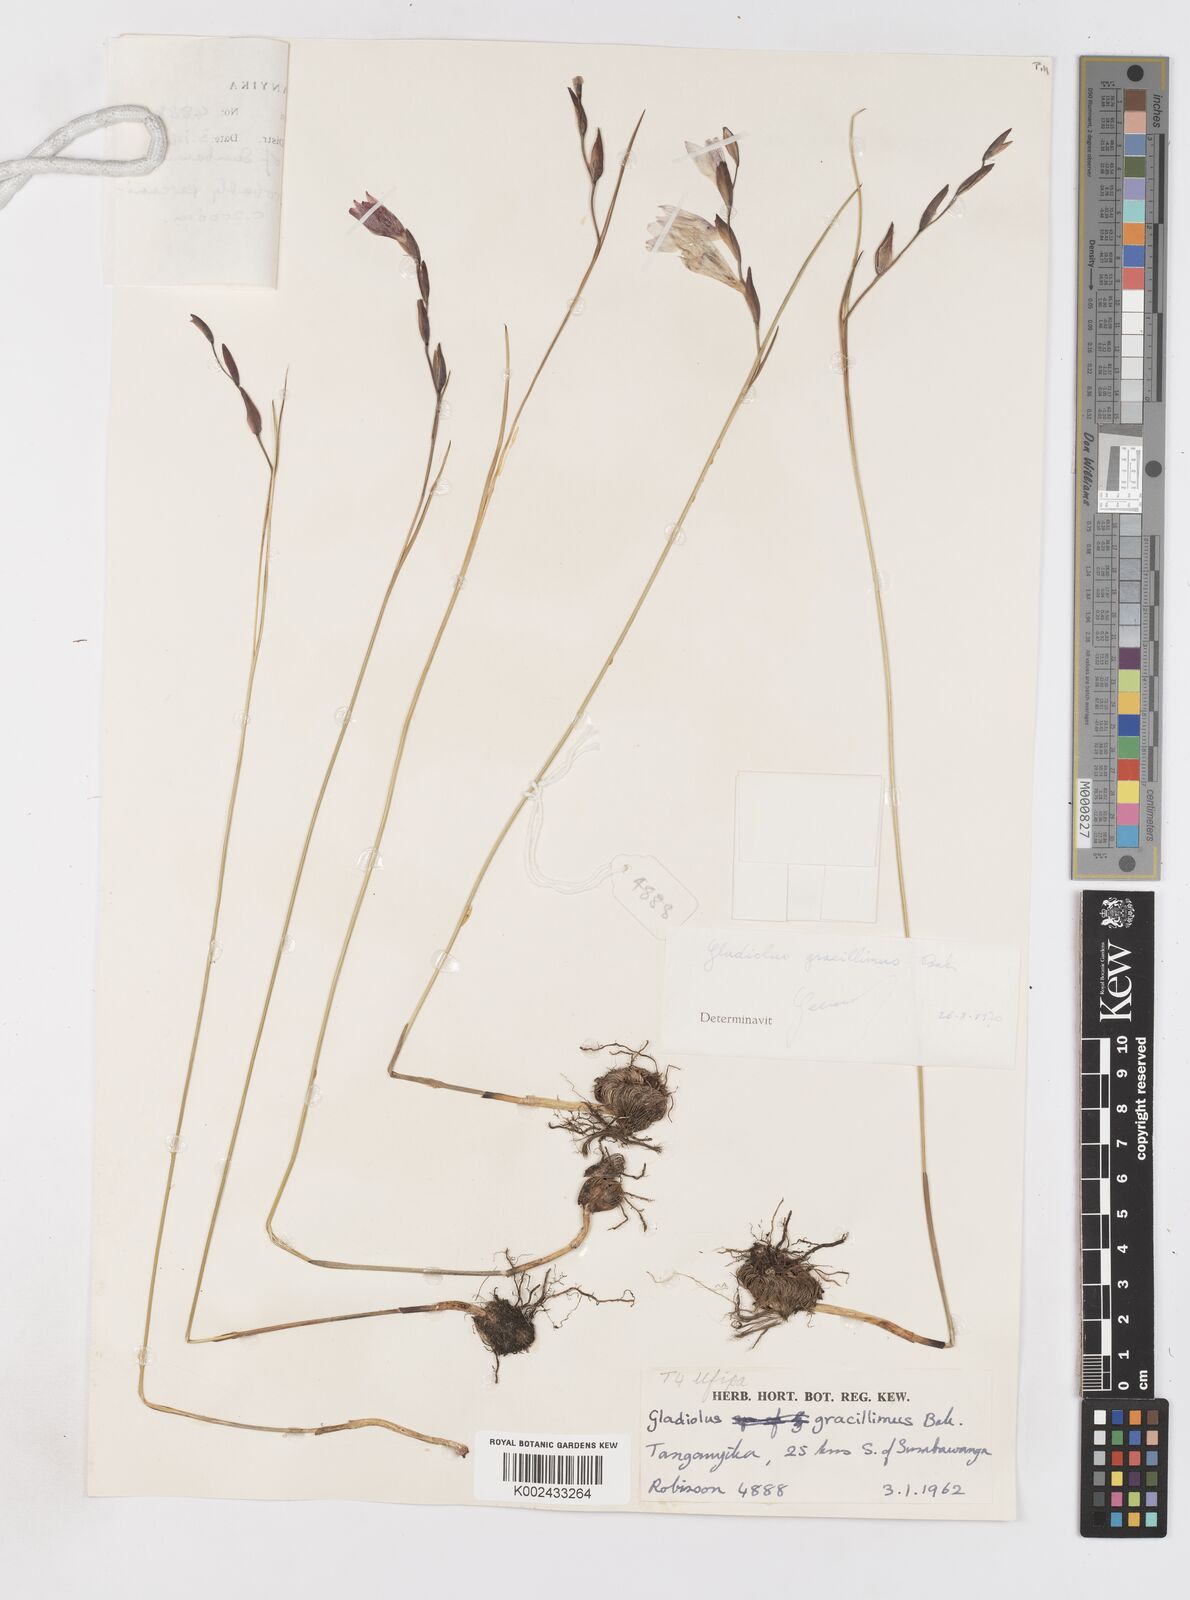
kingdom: Plantae
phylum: Tracheophyta
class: Liliopsida
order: Asparagales
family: Iridaceae
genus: Gladiolus
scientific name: Gladiolus gracillimus
